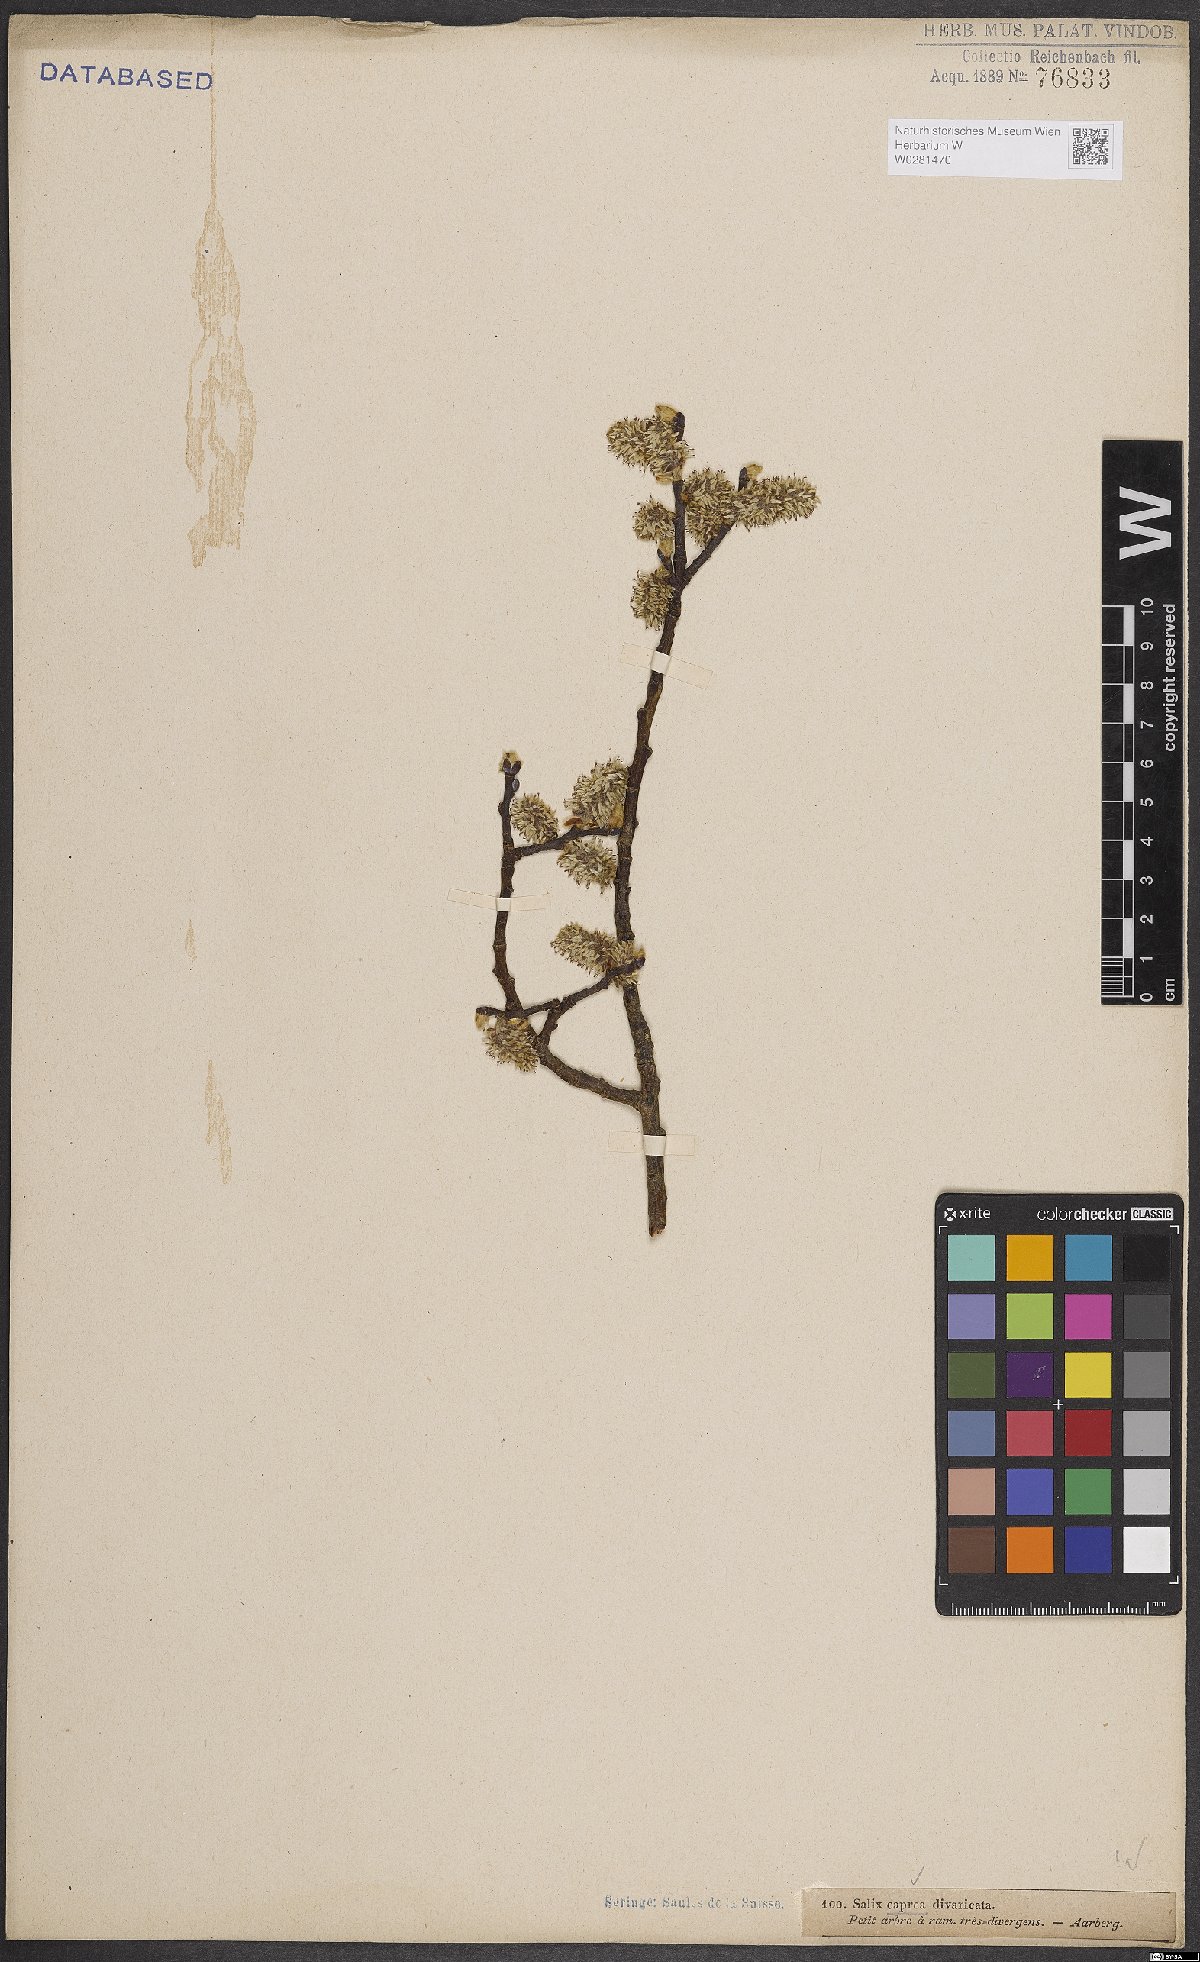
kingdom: Plantae
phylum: Tracheophyta
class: Magnoliopsida
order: Malpighiales
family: Salicaceae
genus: Salix
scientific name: Salix caprea
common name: Goat willow
